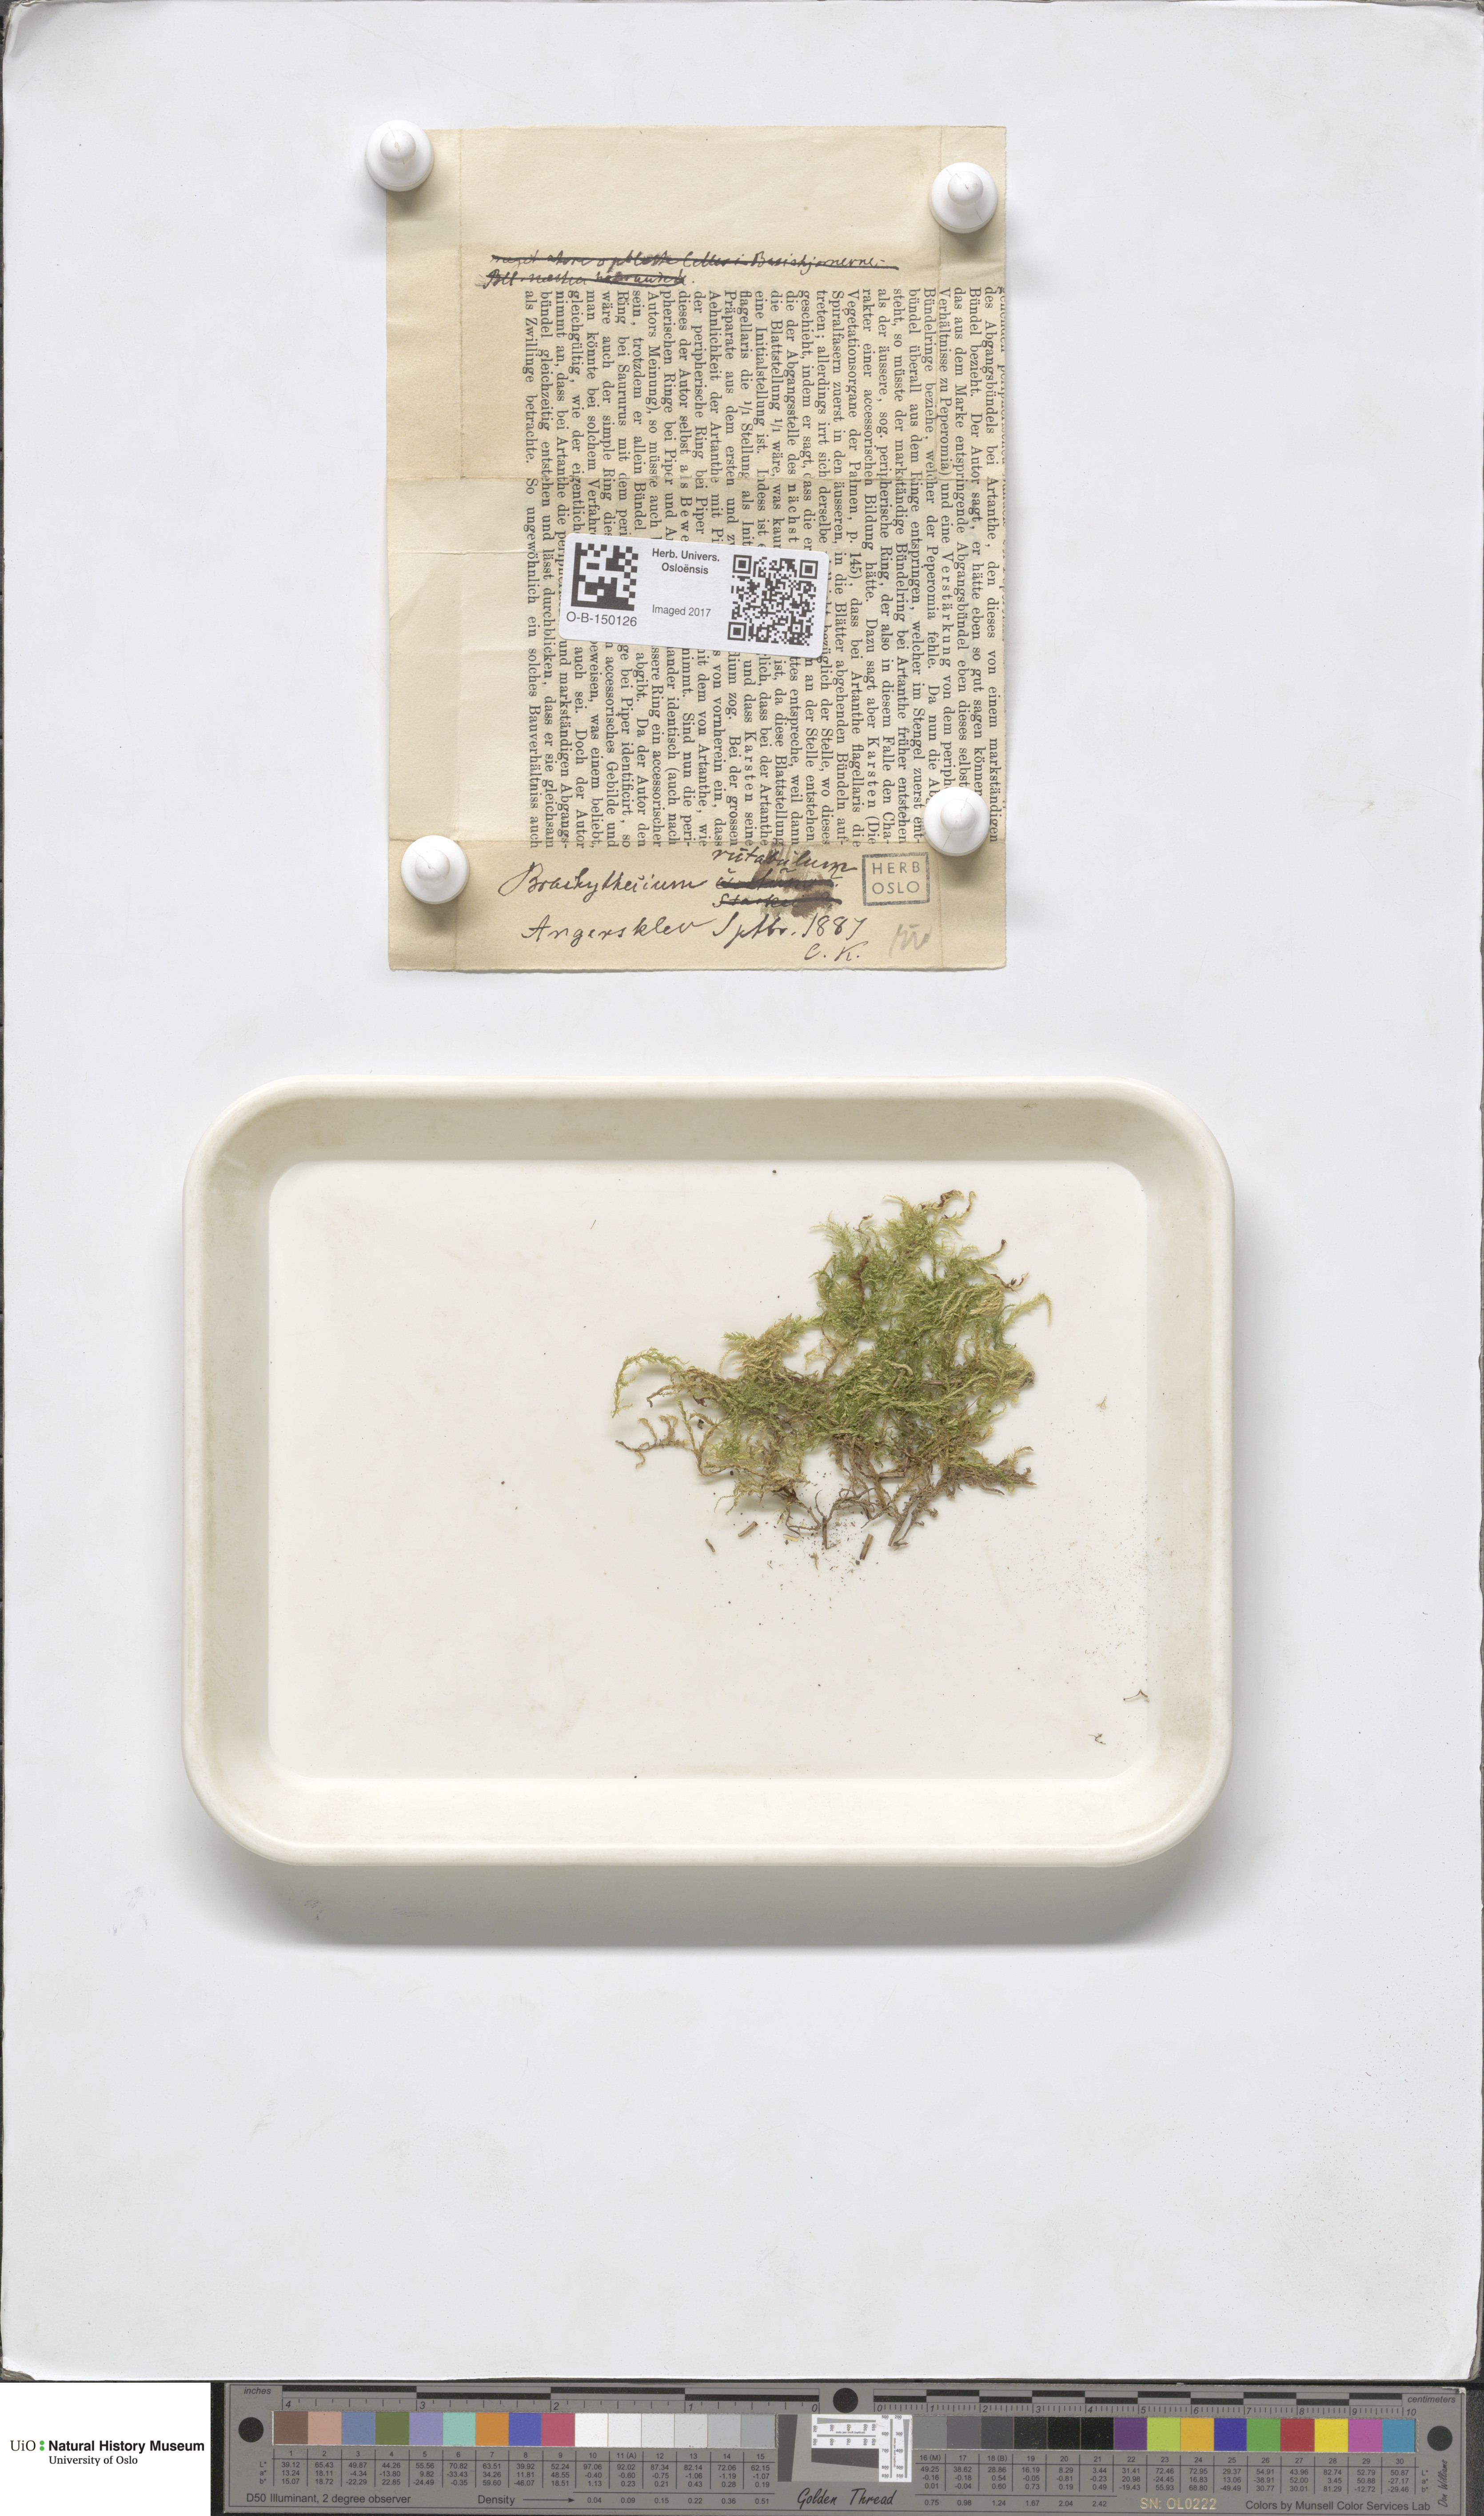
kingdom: Plantae
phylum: Bryophyta
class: Bryopsida
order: Hypnales
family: Brachytheciaceae
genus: Brachythecium
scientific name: Brachythecium rutabulum
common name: Rough-stalked feather-moss
